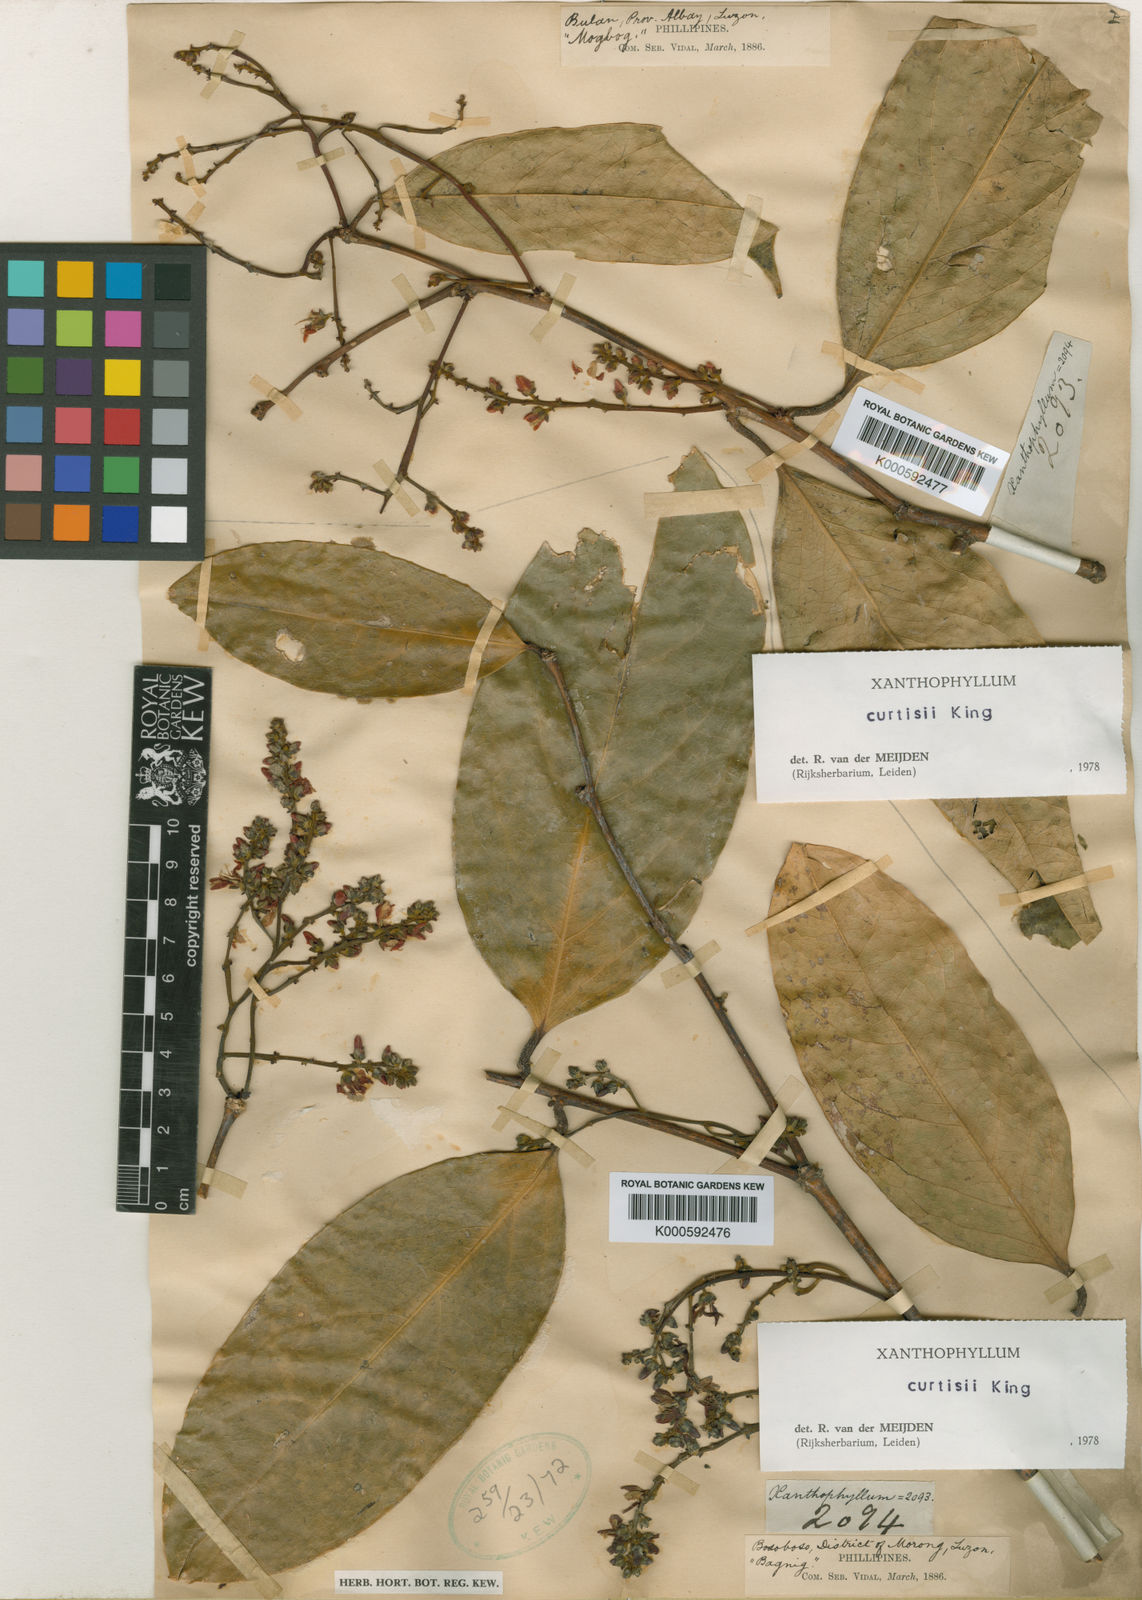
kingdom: Plantae
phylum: Tracheophyta
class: Magnoliopsida
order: Fabales
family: Polygalaceae
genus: Xanthophyllum
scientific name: Xanthophyllum vitellinum
